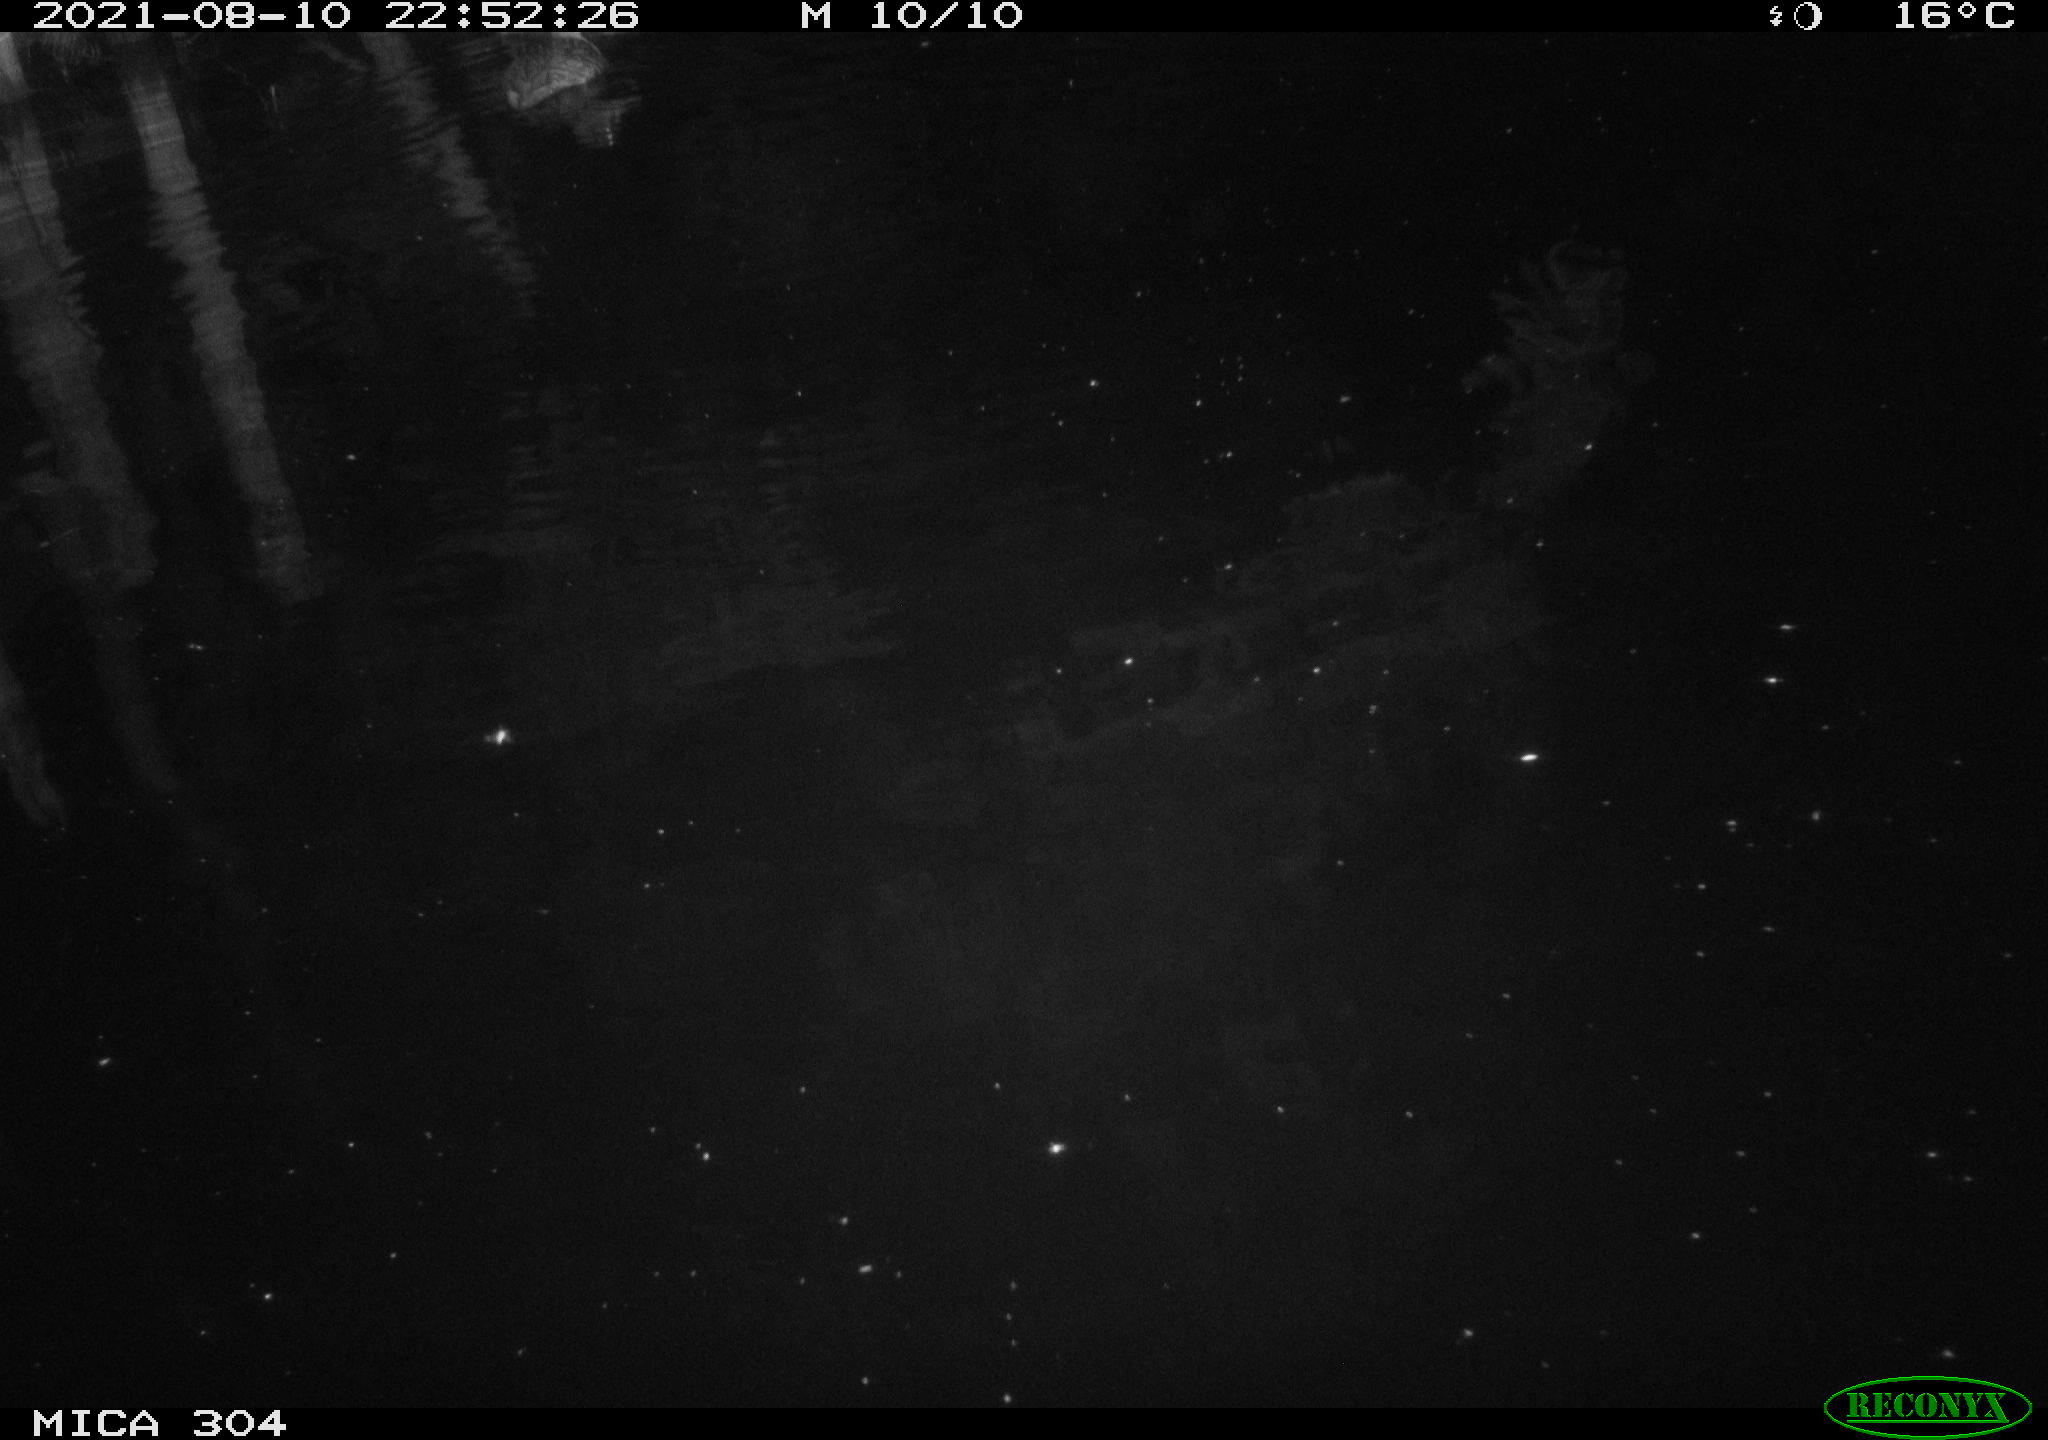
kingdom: Animalia
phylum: Chordata
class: Aves
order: Anseriformes
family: Anatidae
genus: Anas
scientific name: Anas platyrhynchos
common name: Mallard
